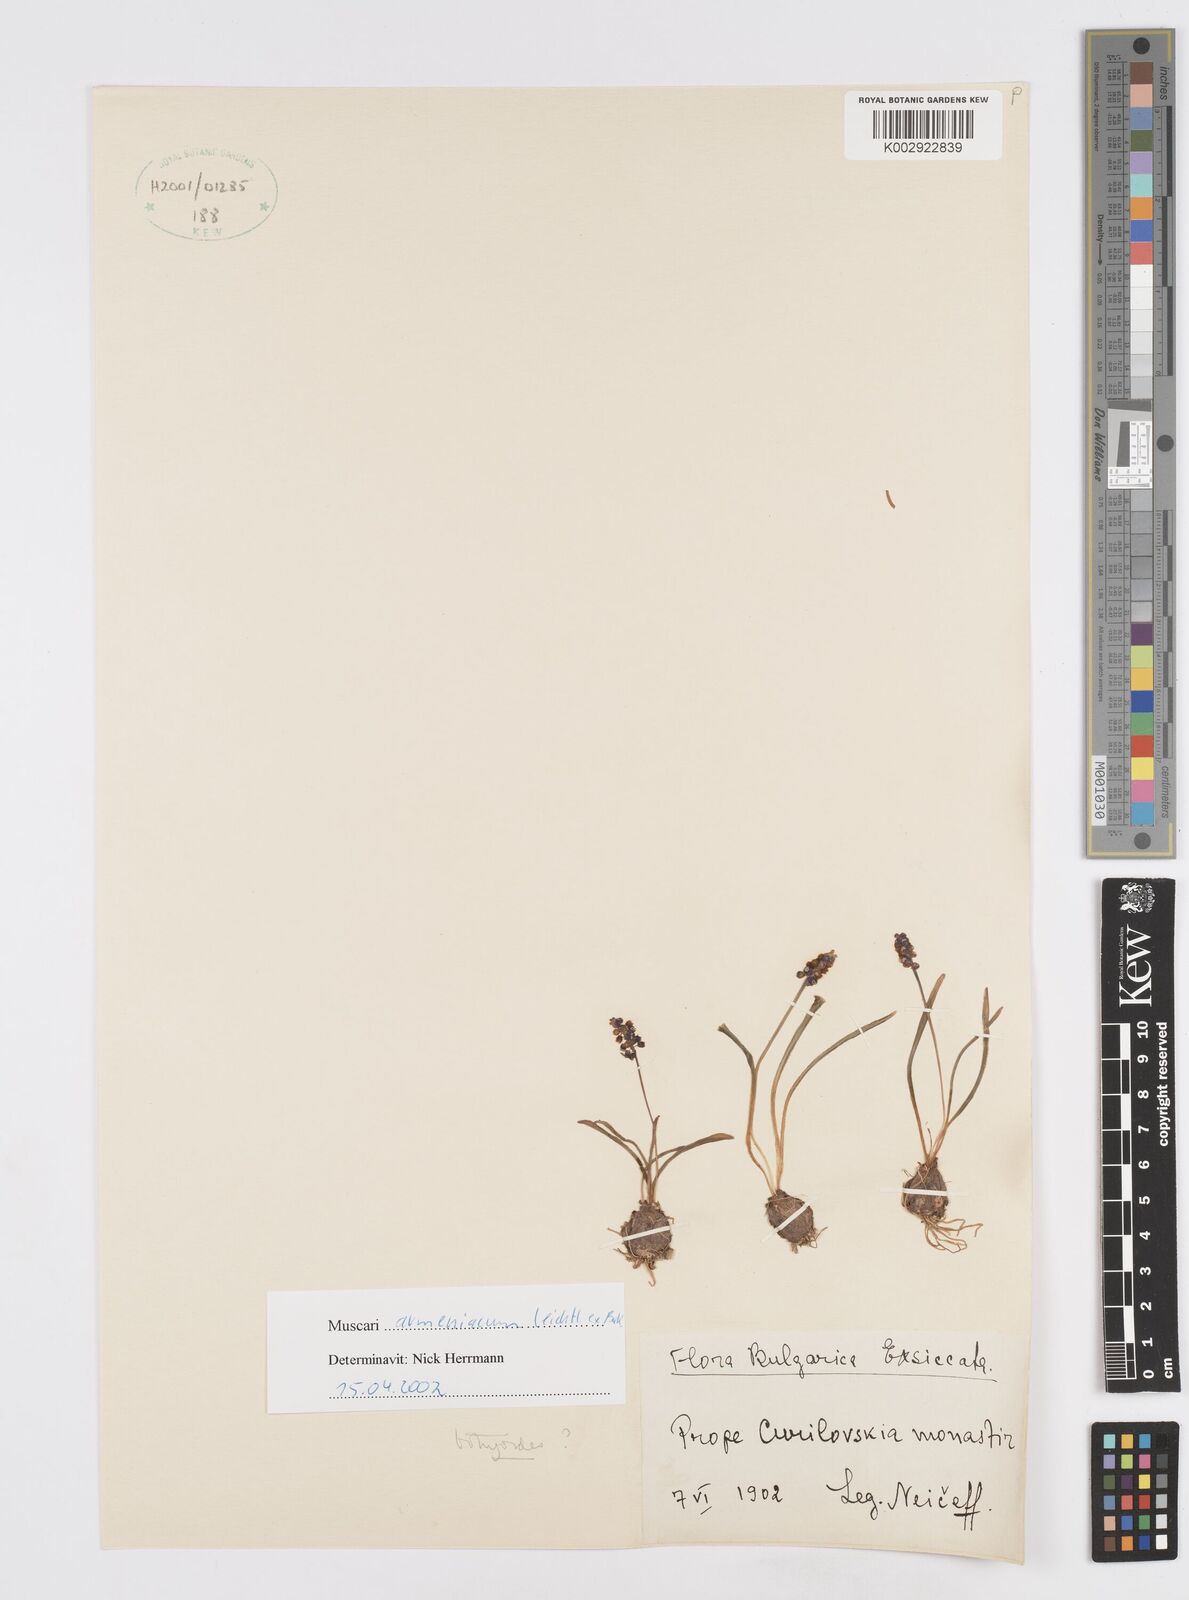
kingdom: Plantae
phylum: Tracheophyta
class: Liliopsida
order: Asparagales
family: Asparagaceae
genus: Muscari
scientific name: Muscari
